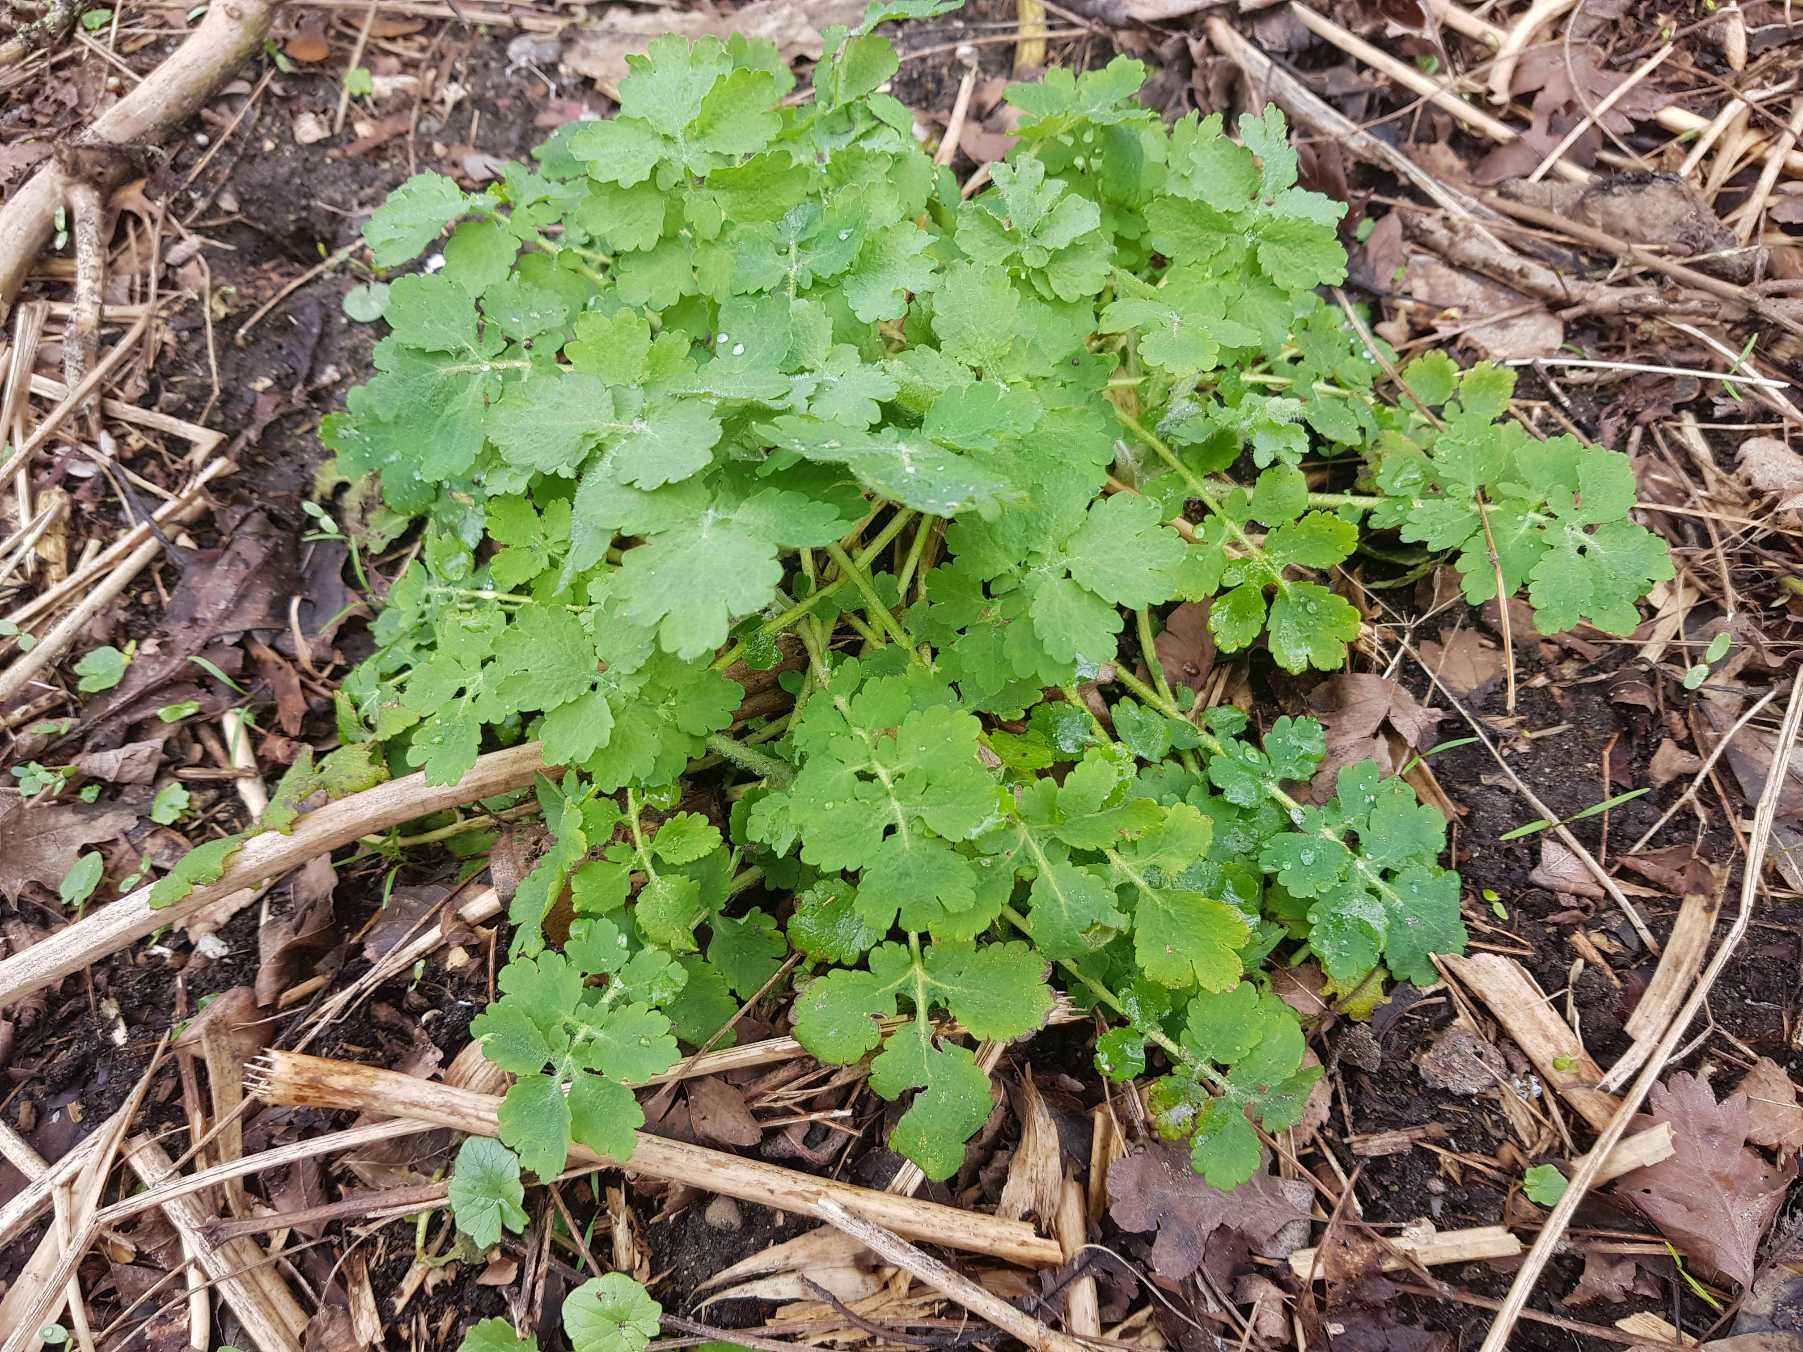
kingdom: Plantae
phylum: Tracheophyta
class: Magnoliopsida
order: Ranunculales
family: Papaveraceae
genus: Chelidonium
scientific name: Chelidonium majus
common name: Svaleurt
